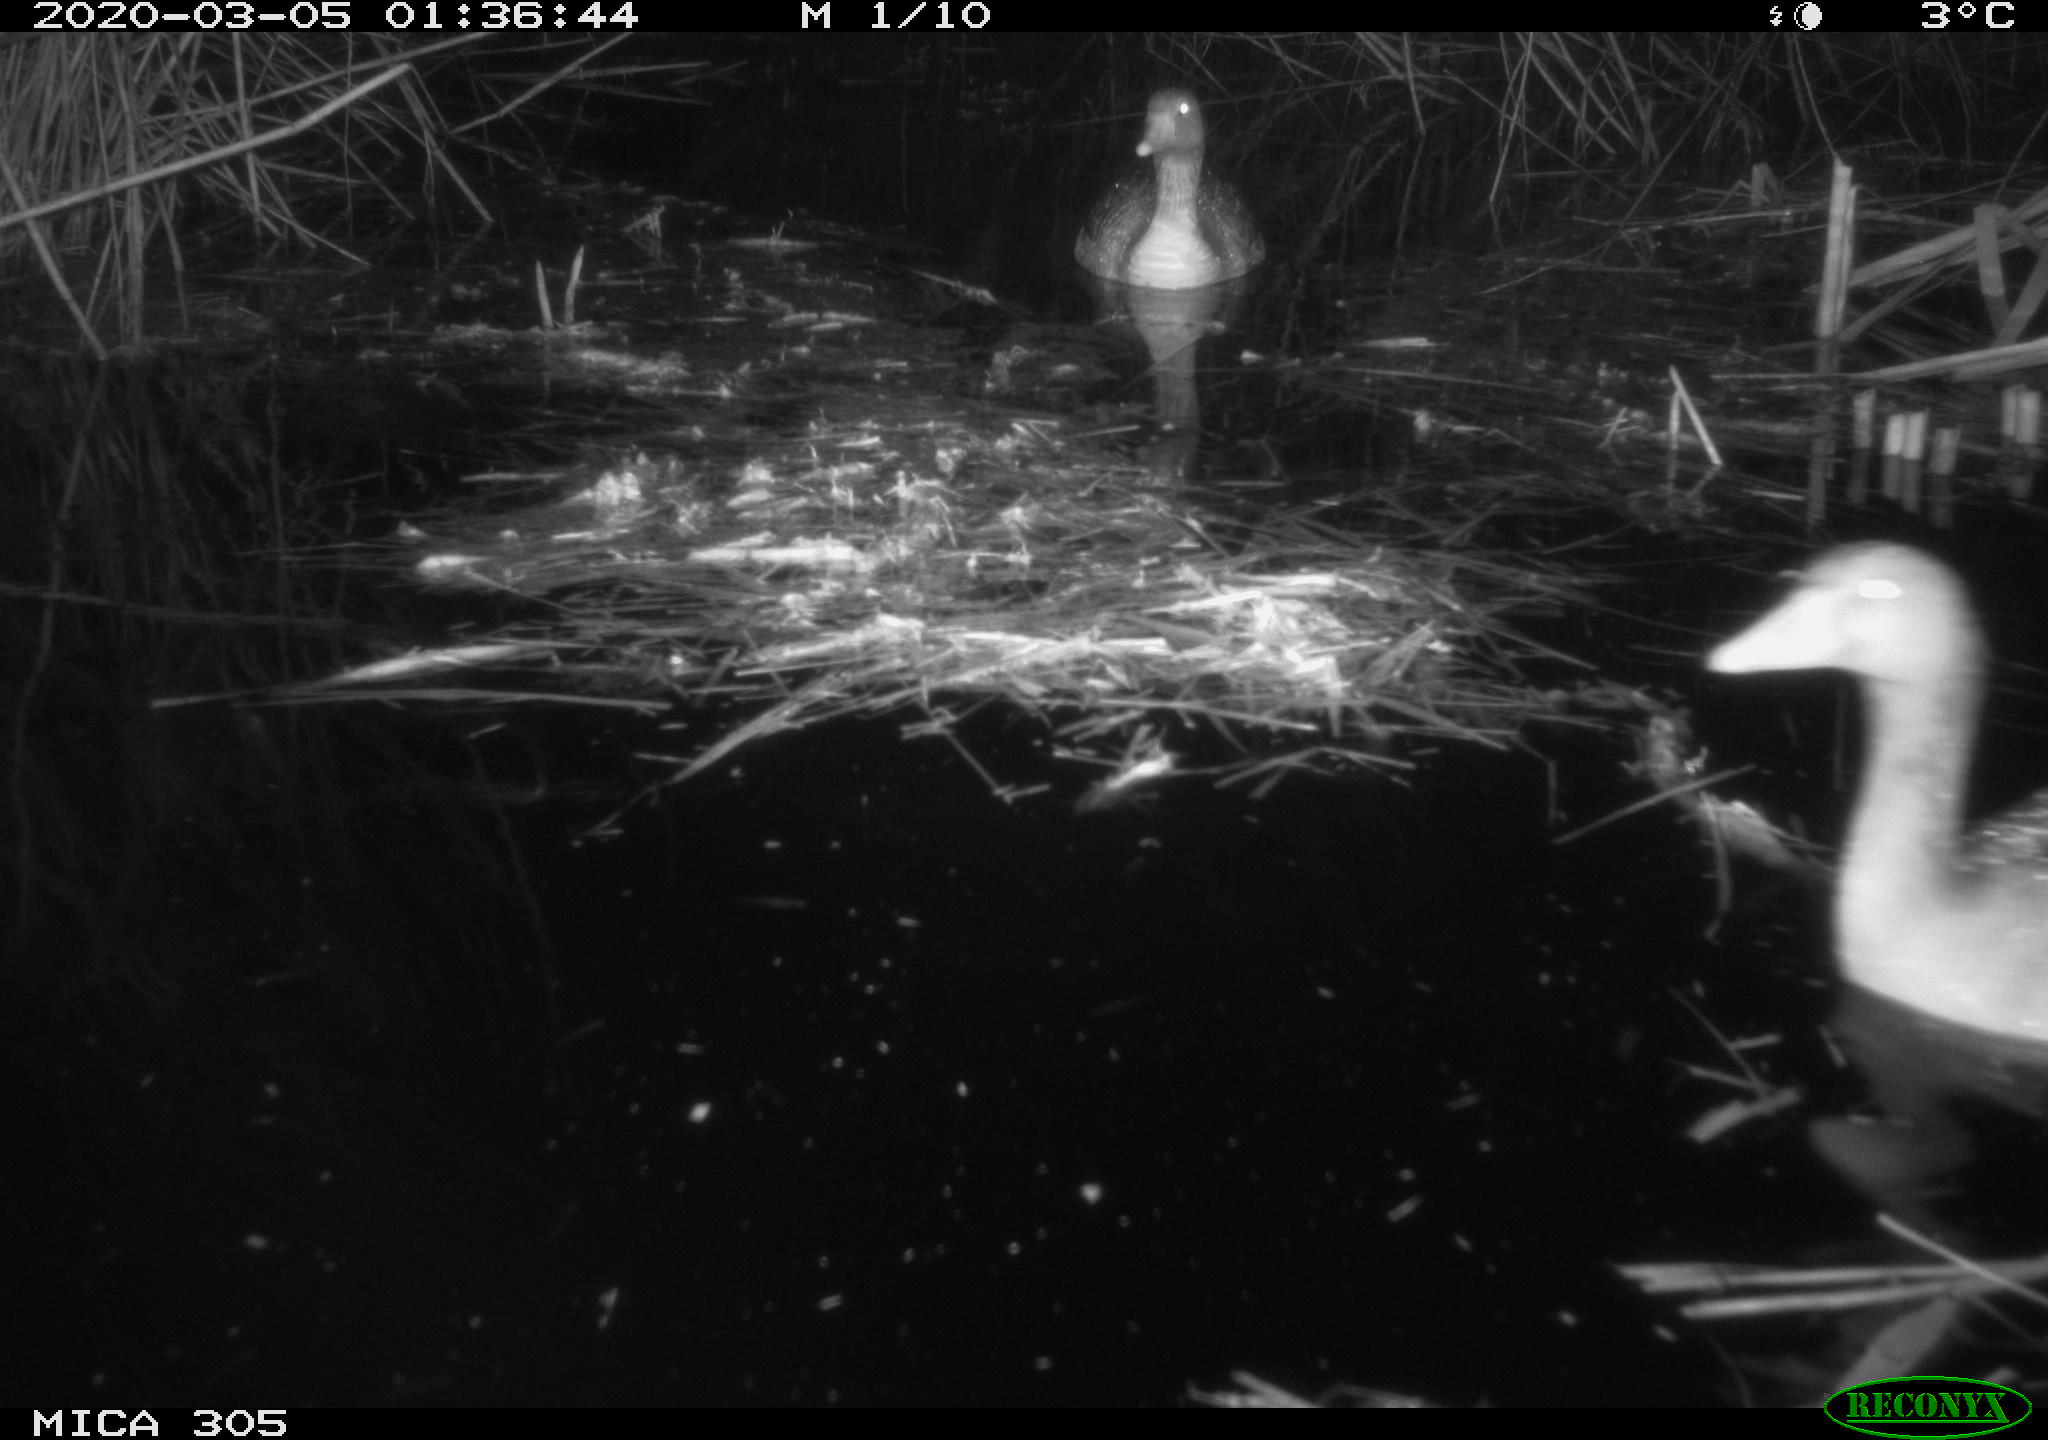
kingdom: Animalia
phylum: Chordata
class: Aves
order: Anseriformes
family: Anatidae
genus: Anser
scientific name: Anser anser
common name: Greylag goose
